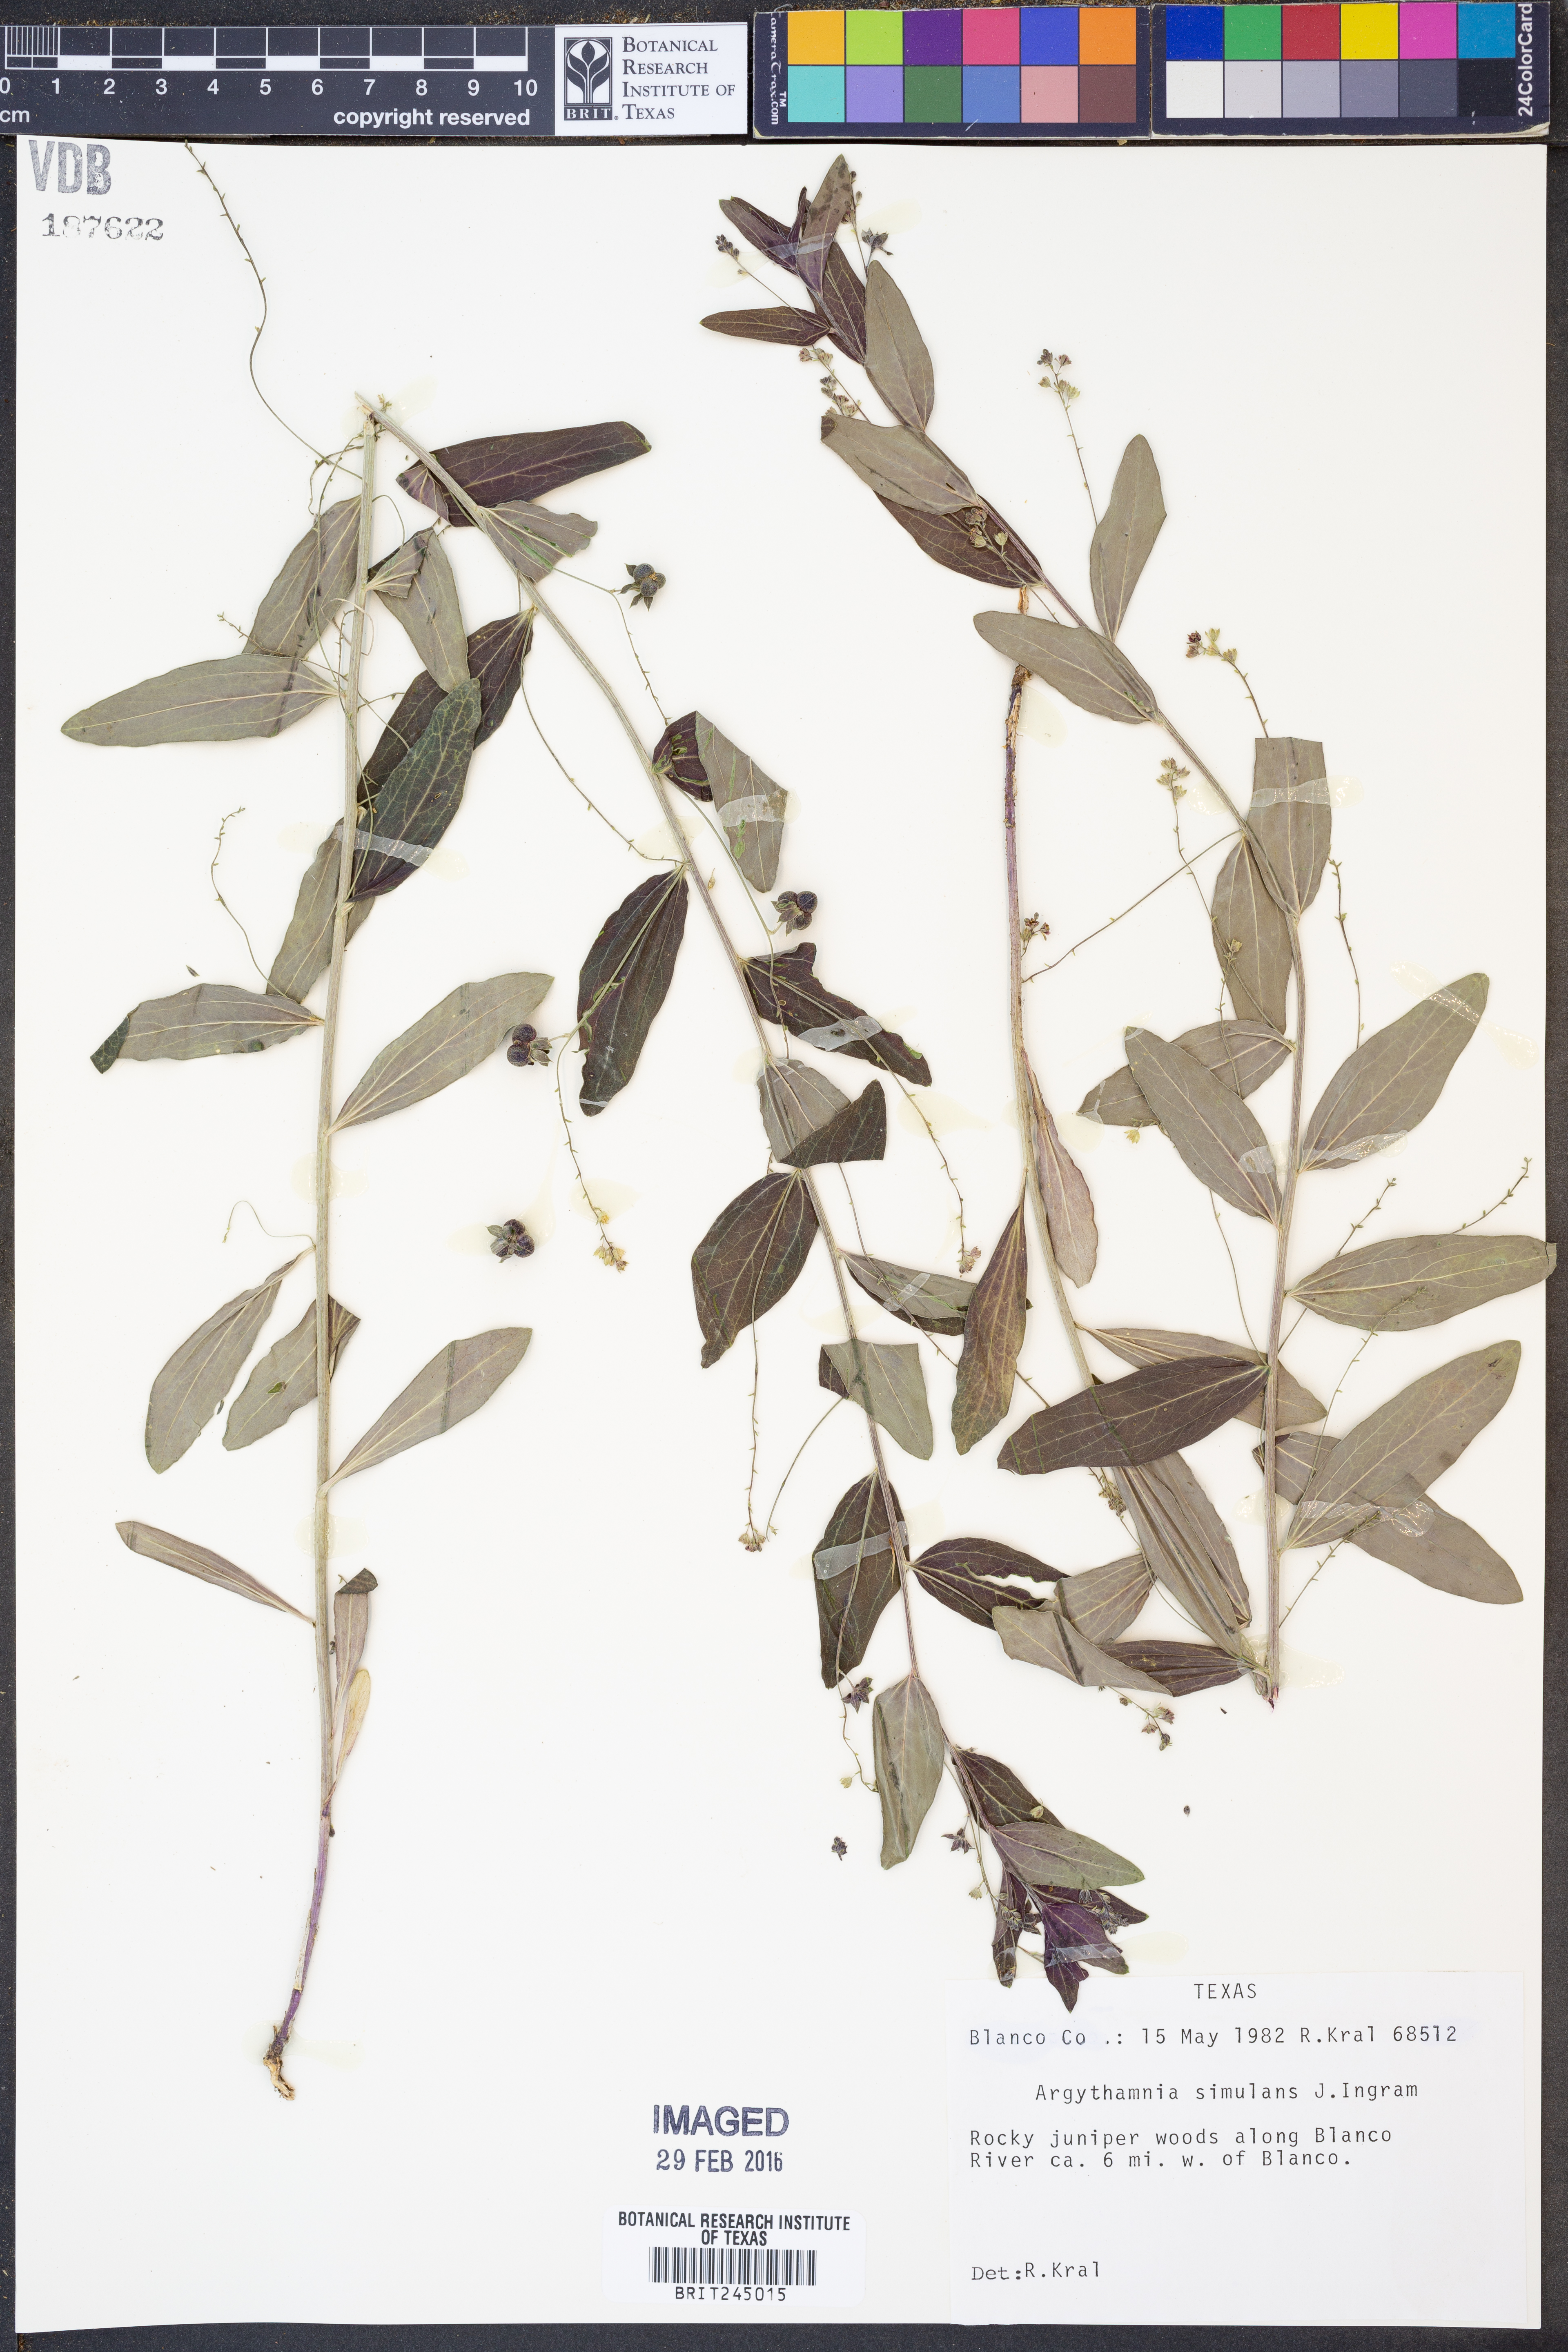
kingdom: Plantae
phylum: Tracheophyta
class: Magnoliopsida
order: Malpighiales
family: Euphorbiaceae
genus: Ditaxis
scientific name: Ditaxis simulans
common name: Plateau silverbush
